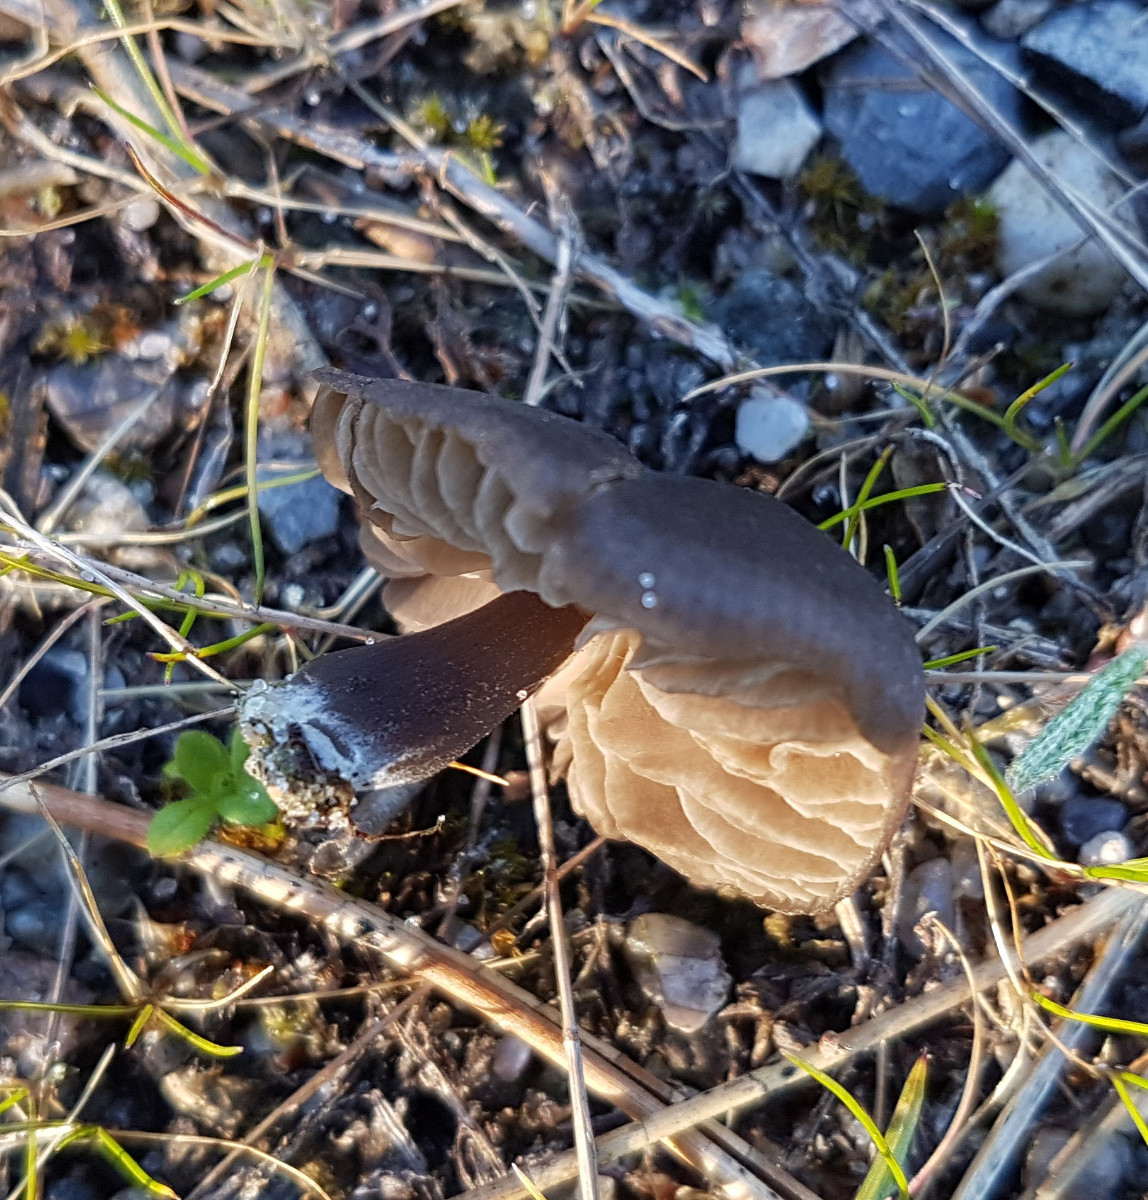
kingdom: Fungi
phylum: Basidiomycota
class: Agaricomycetes
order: Agaricales
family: Entolomataceae
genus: Entoloma
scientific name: Entoloma
